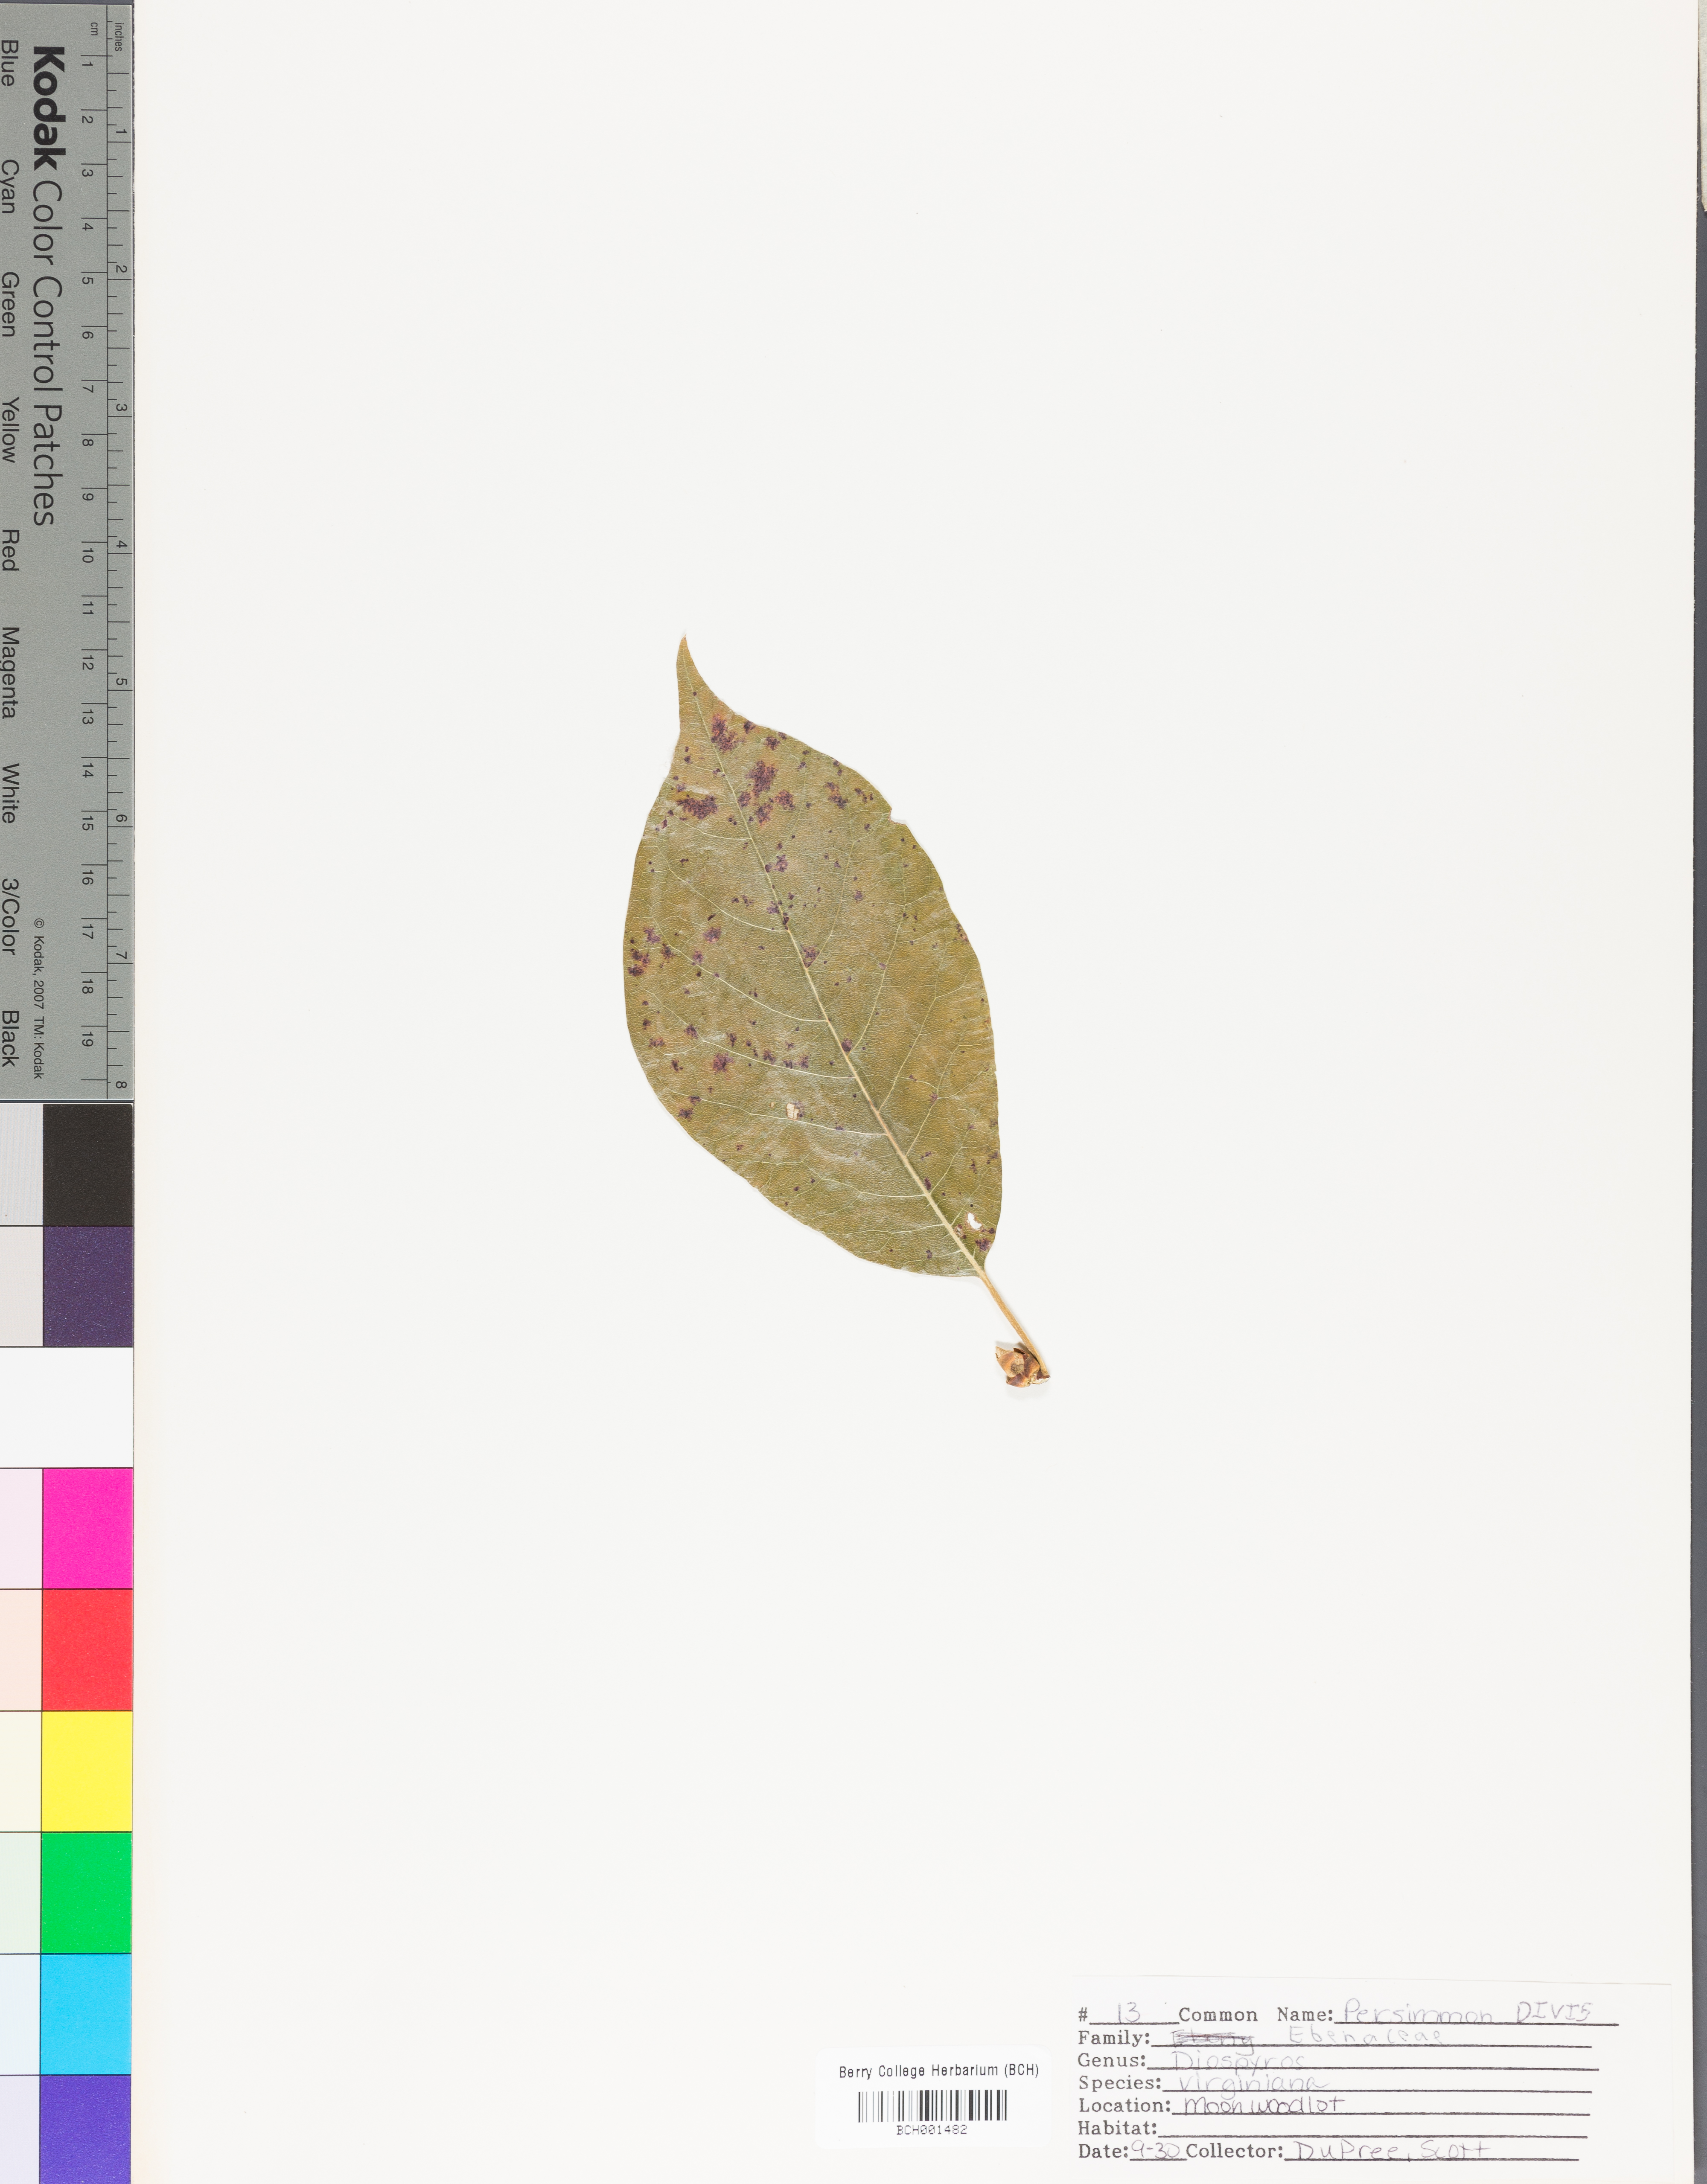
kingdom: Plantae
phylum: Tracheophyta
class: Magnoliopsida
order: Ericales
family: Ebenaceae
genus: Diospyros
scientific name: Diospyros virginiana
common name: Persimmon
